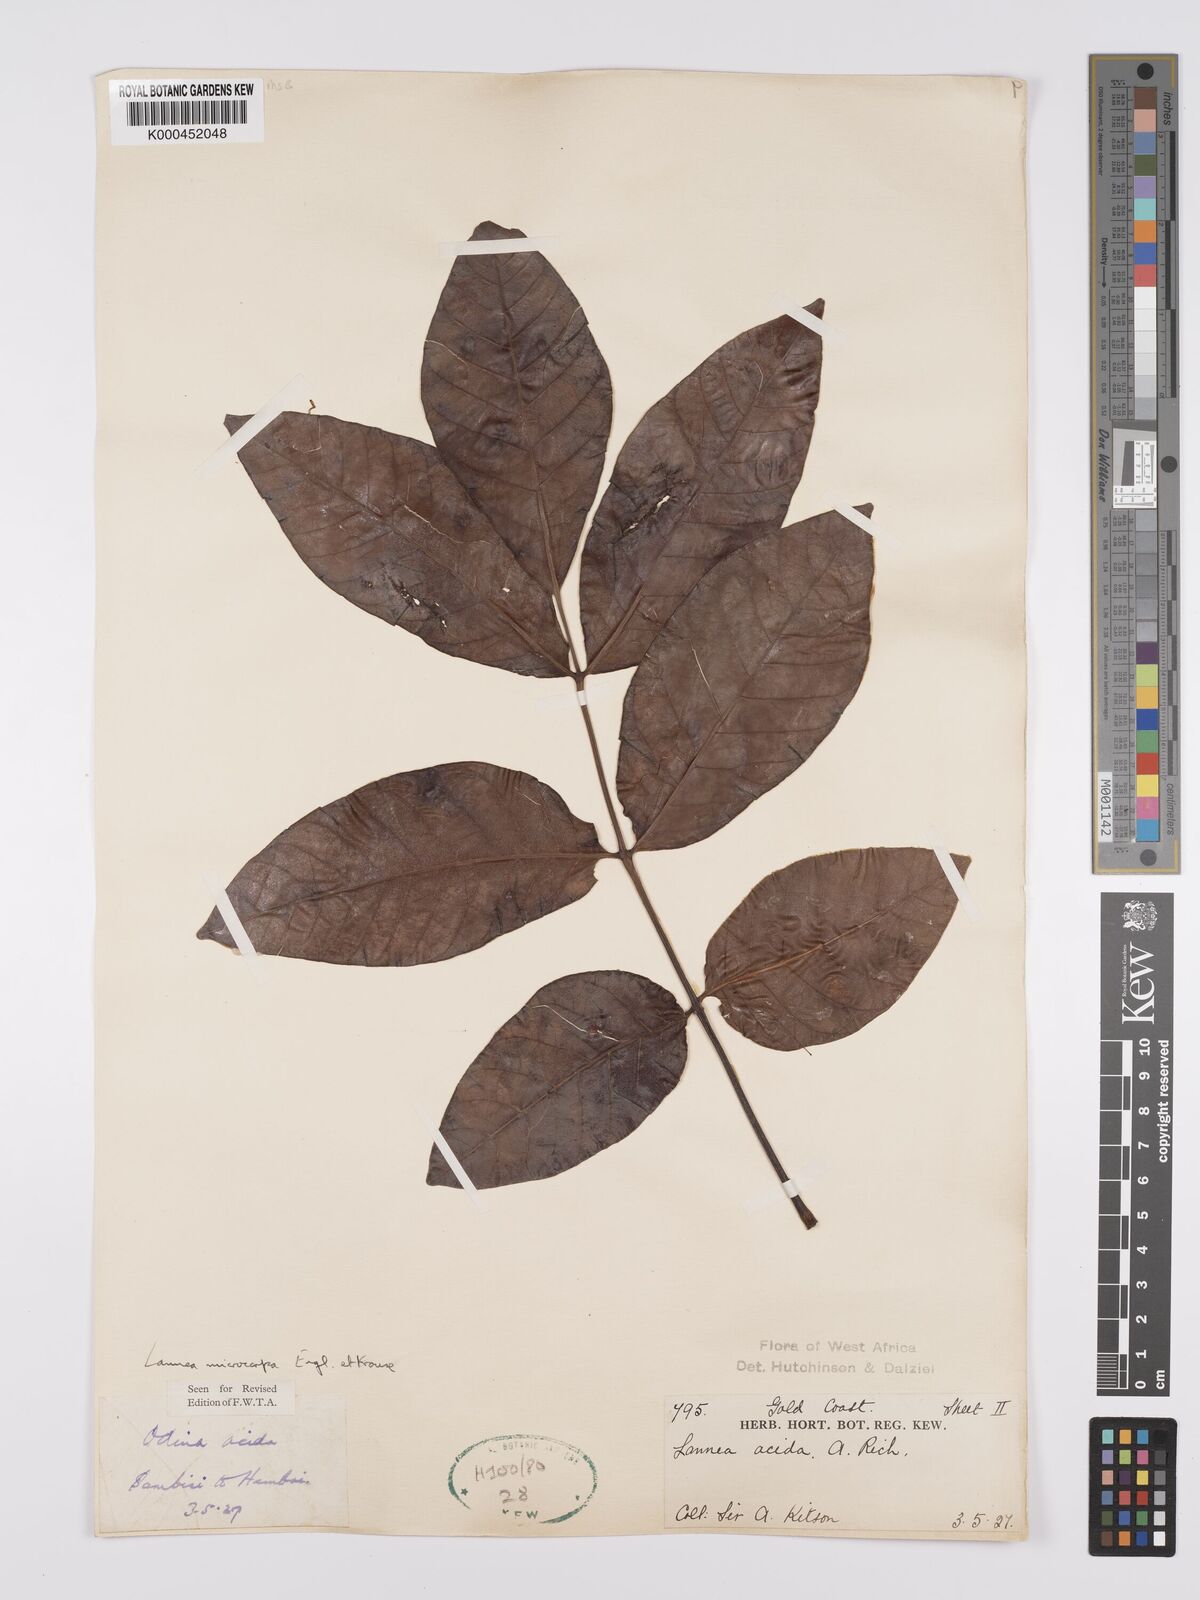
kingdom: Plantae
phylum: Tracheophyta
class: Magnoliopsida
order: Sapindales
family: Anacardiaceae
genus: Lannea
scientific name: Lannea microcarpa
